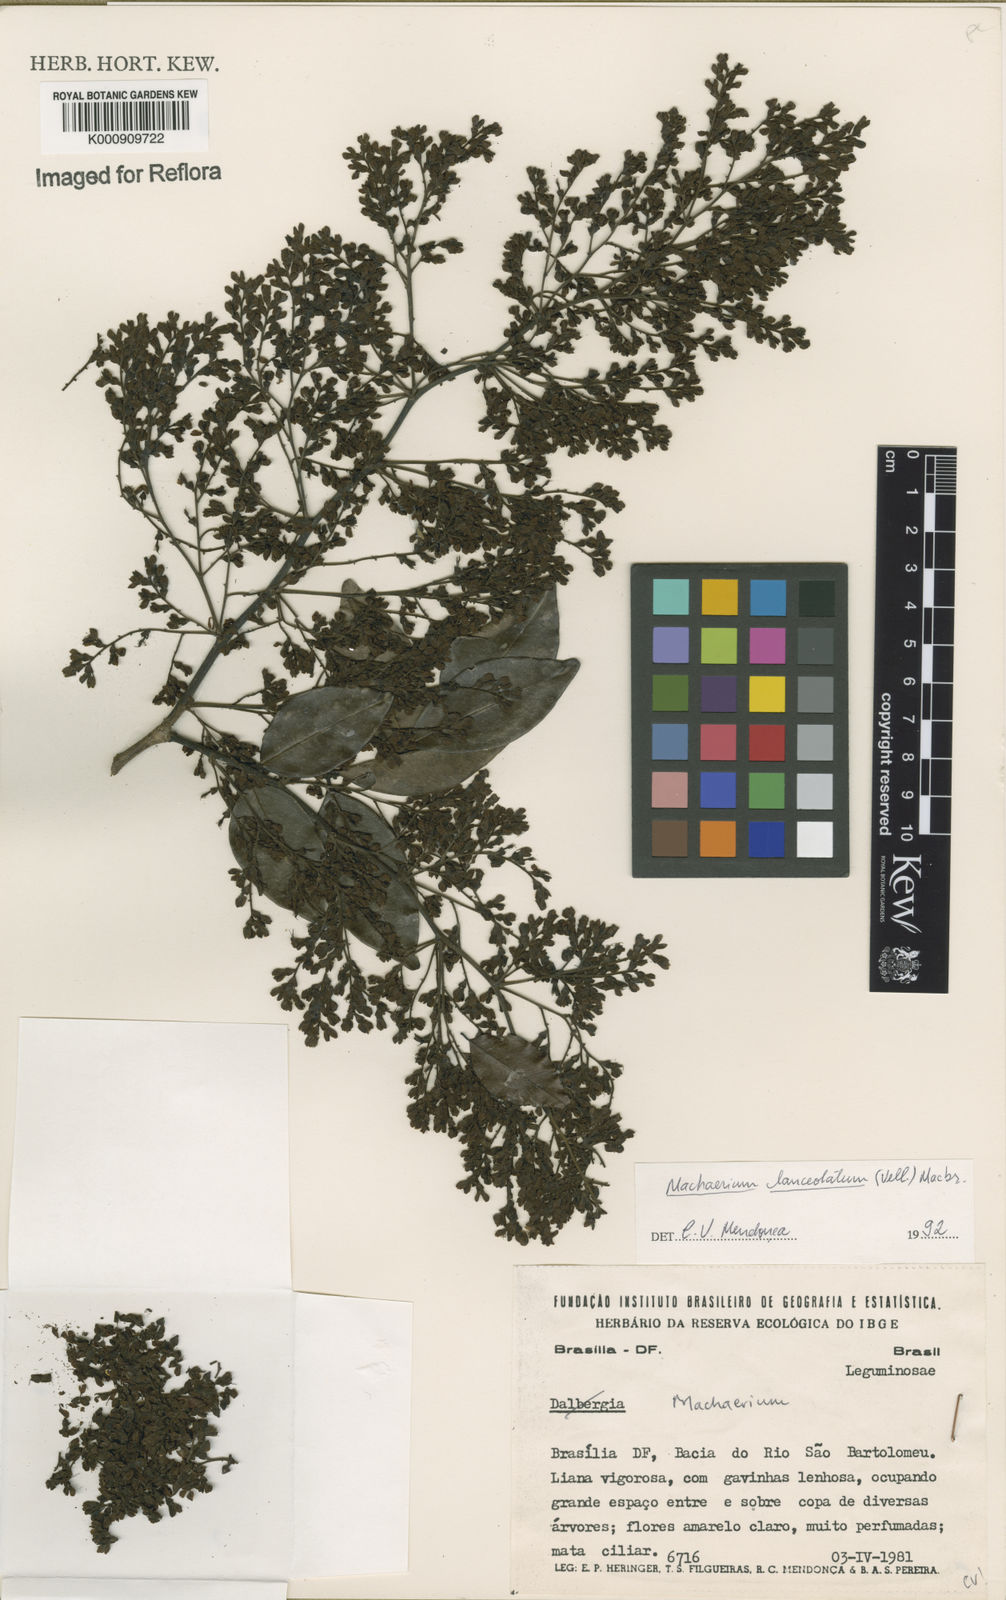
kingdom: Plantae
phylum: Tracheophyta
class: Magnoliopsida
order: Fabales
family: Fabaceae
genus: Machaerium
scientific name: Machaerium lanceolatum
